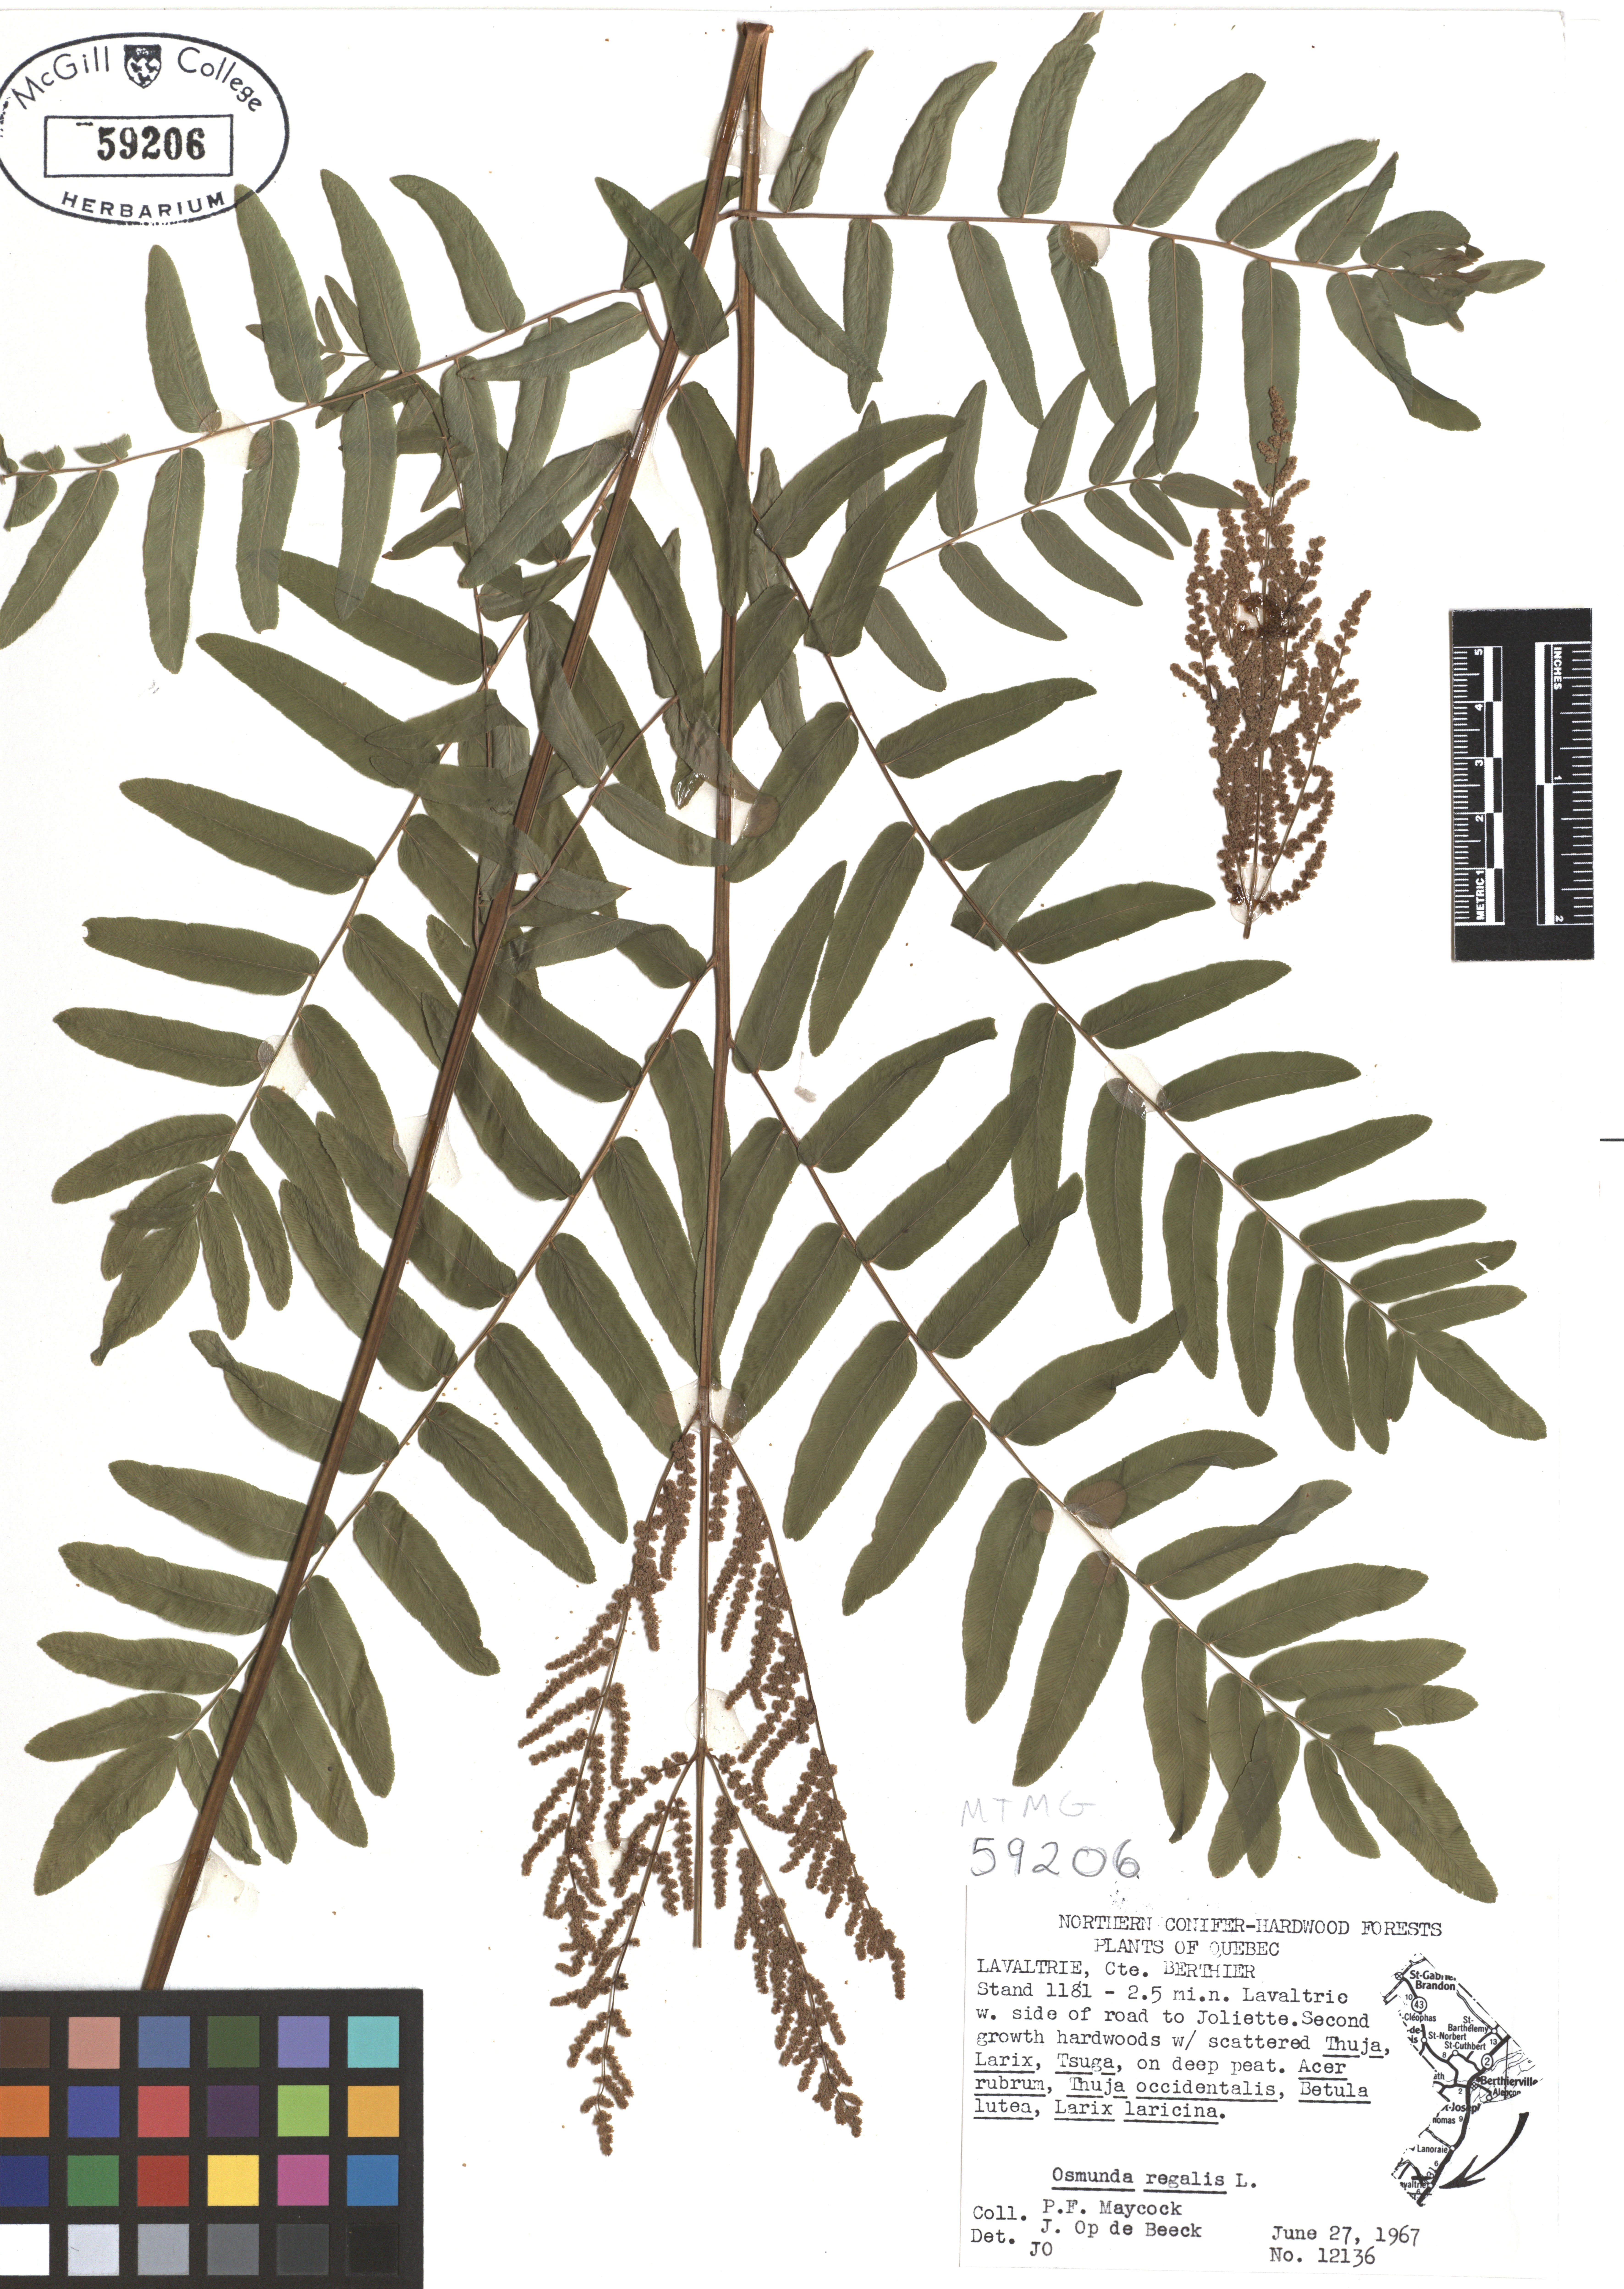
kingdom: Plantae
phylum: Tracheophyta
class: Polypodiopsida
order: Osmundales
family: Osmundaceae
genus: Osmunda
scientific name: Osmunda regalis
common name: Royal fern
